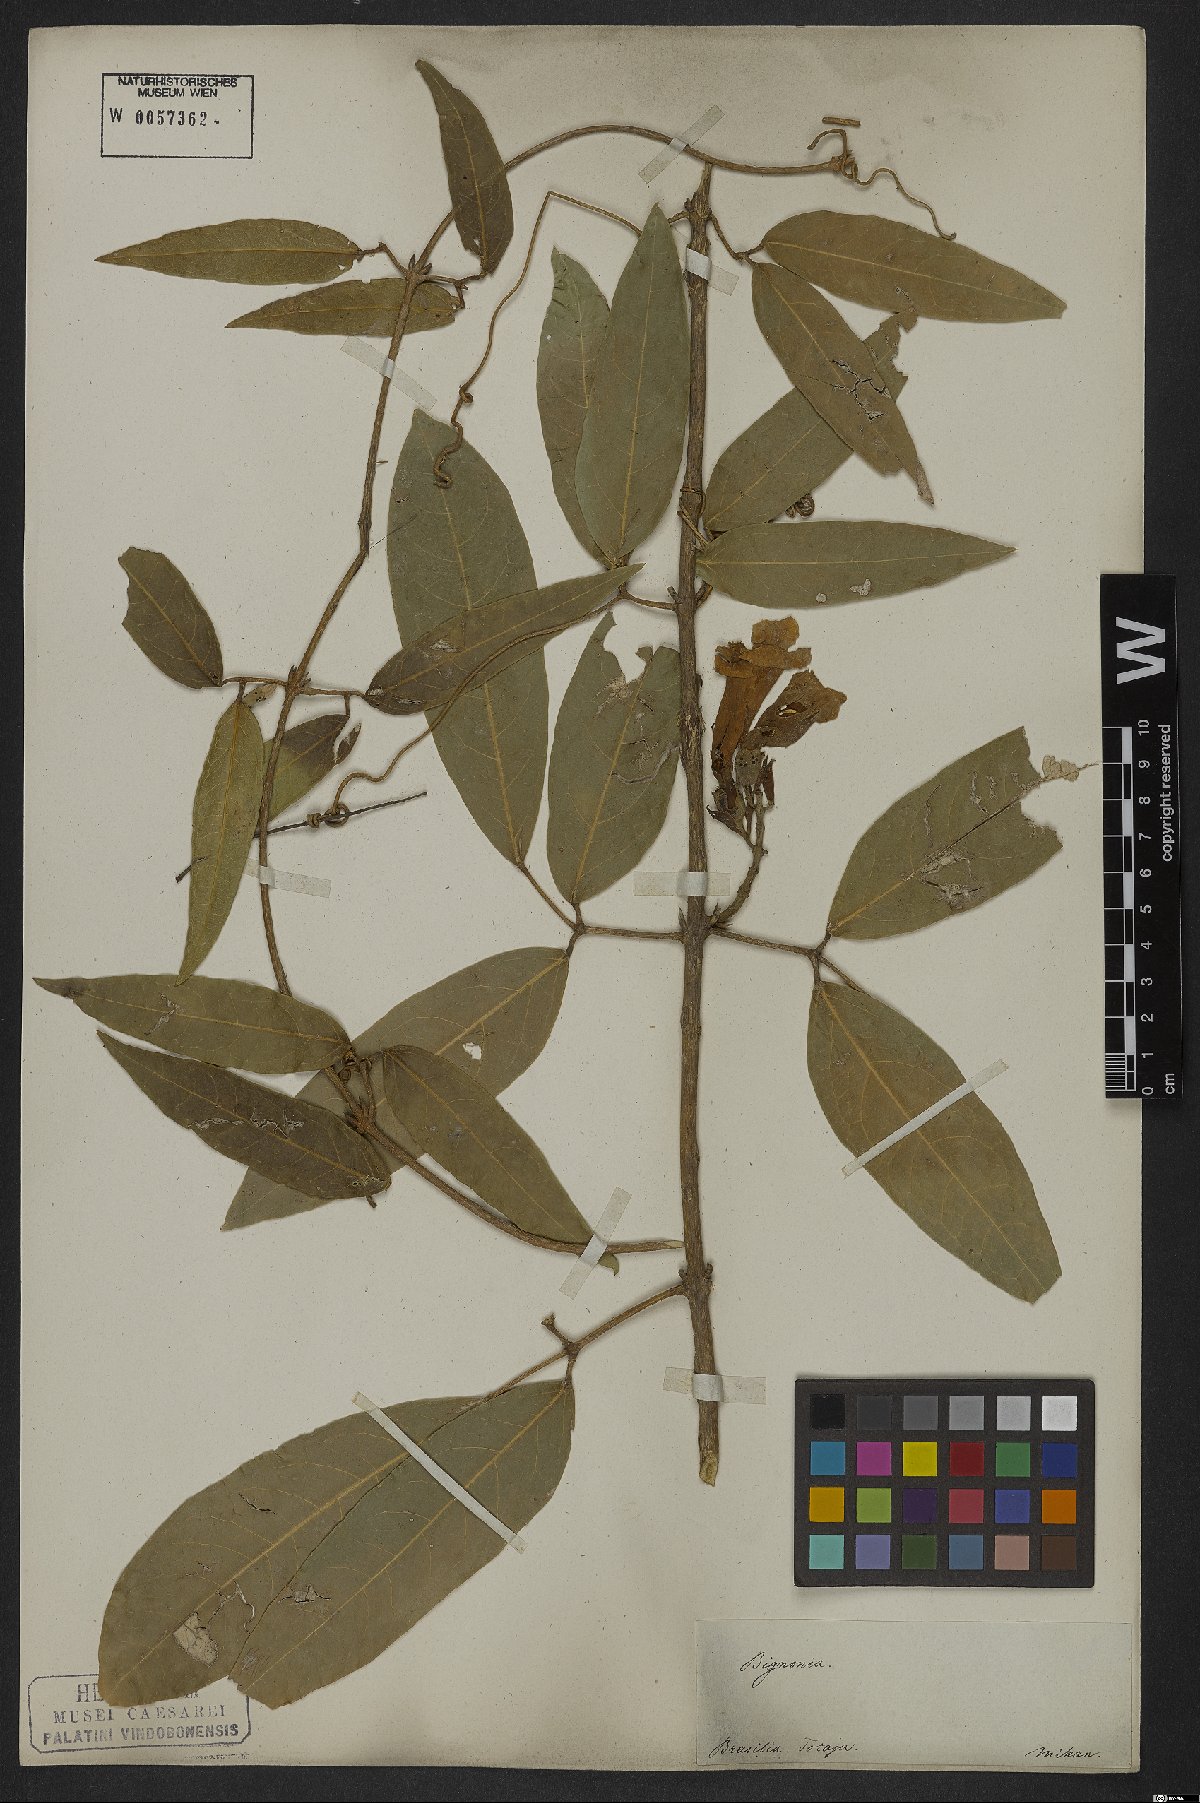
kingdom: Plantae
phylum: Tracheophyta
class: Magnoliopsida
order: Lamiales
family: Bignoniaceae
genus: Adenocalymma
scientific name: Adenocalymma trifoliatum
